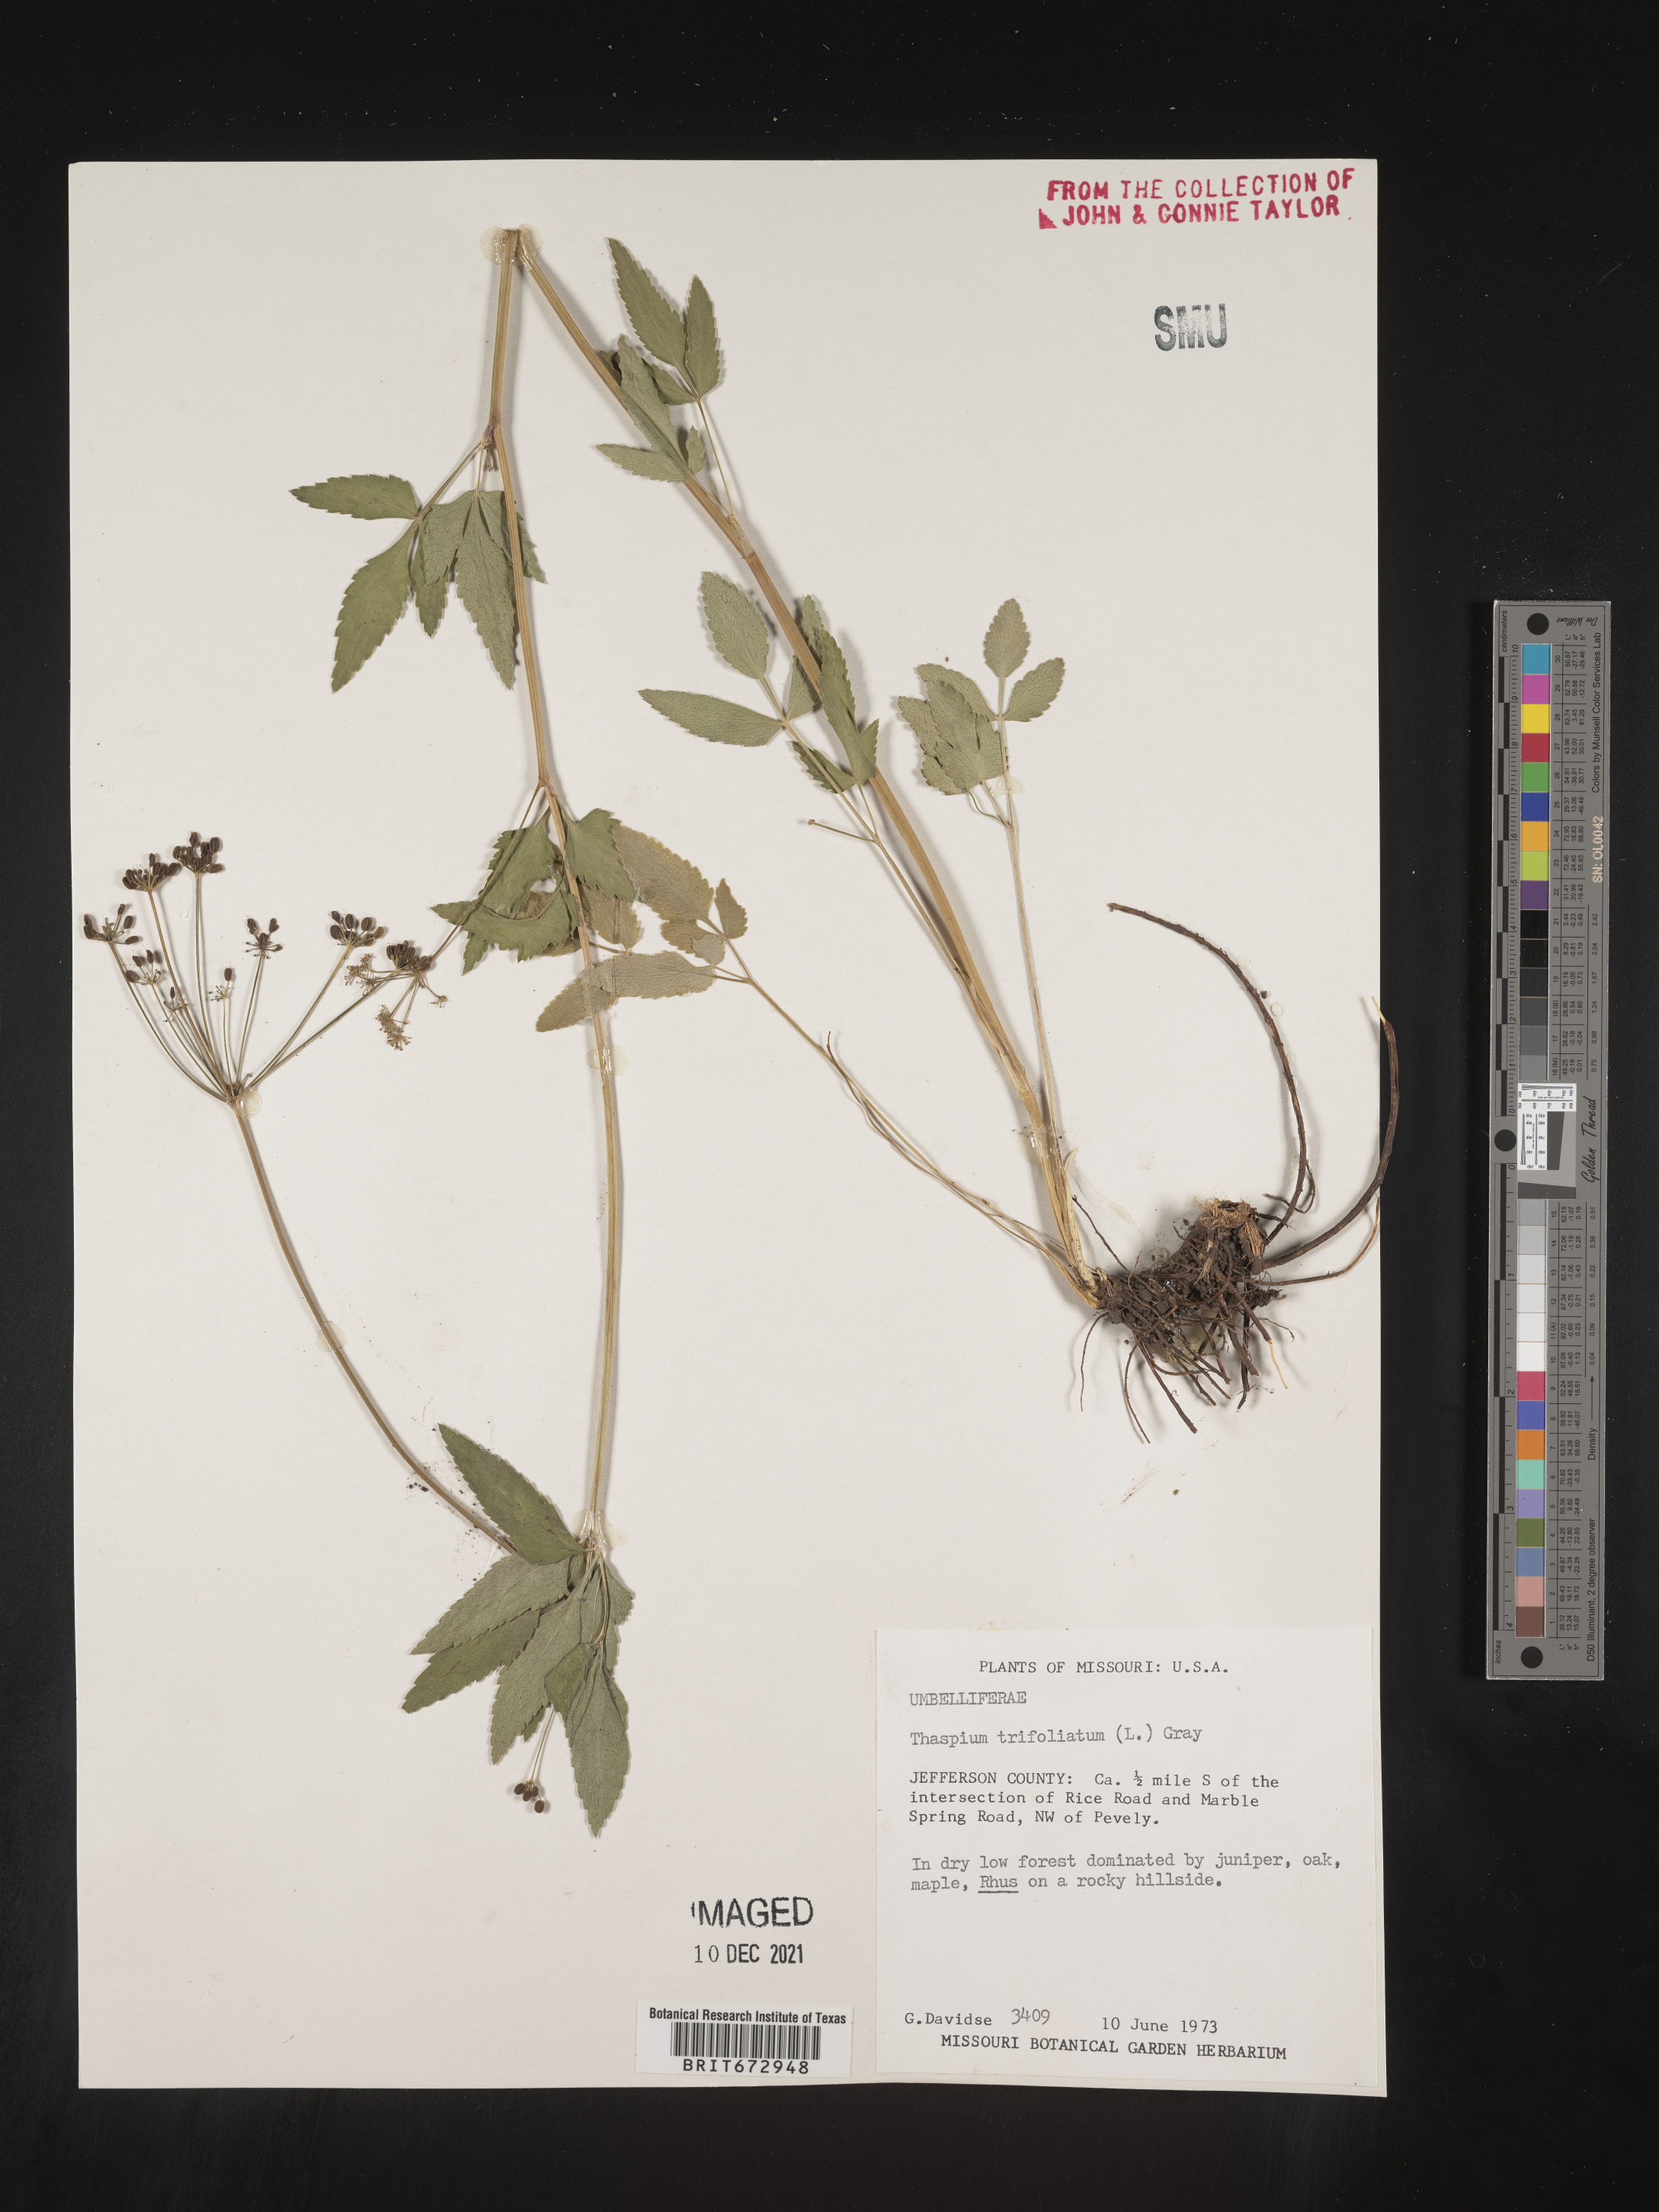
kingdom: Plantae
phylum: Tracheophyta
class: Magnoliopsida
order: Apiales
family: Apiaceae
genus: Thaspium
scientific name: Thaspium
